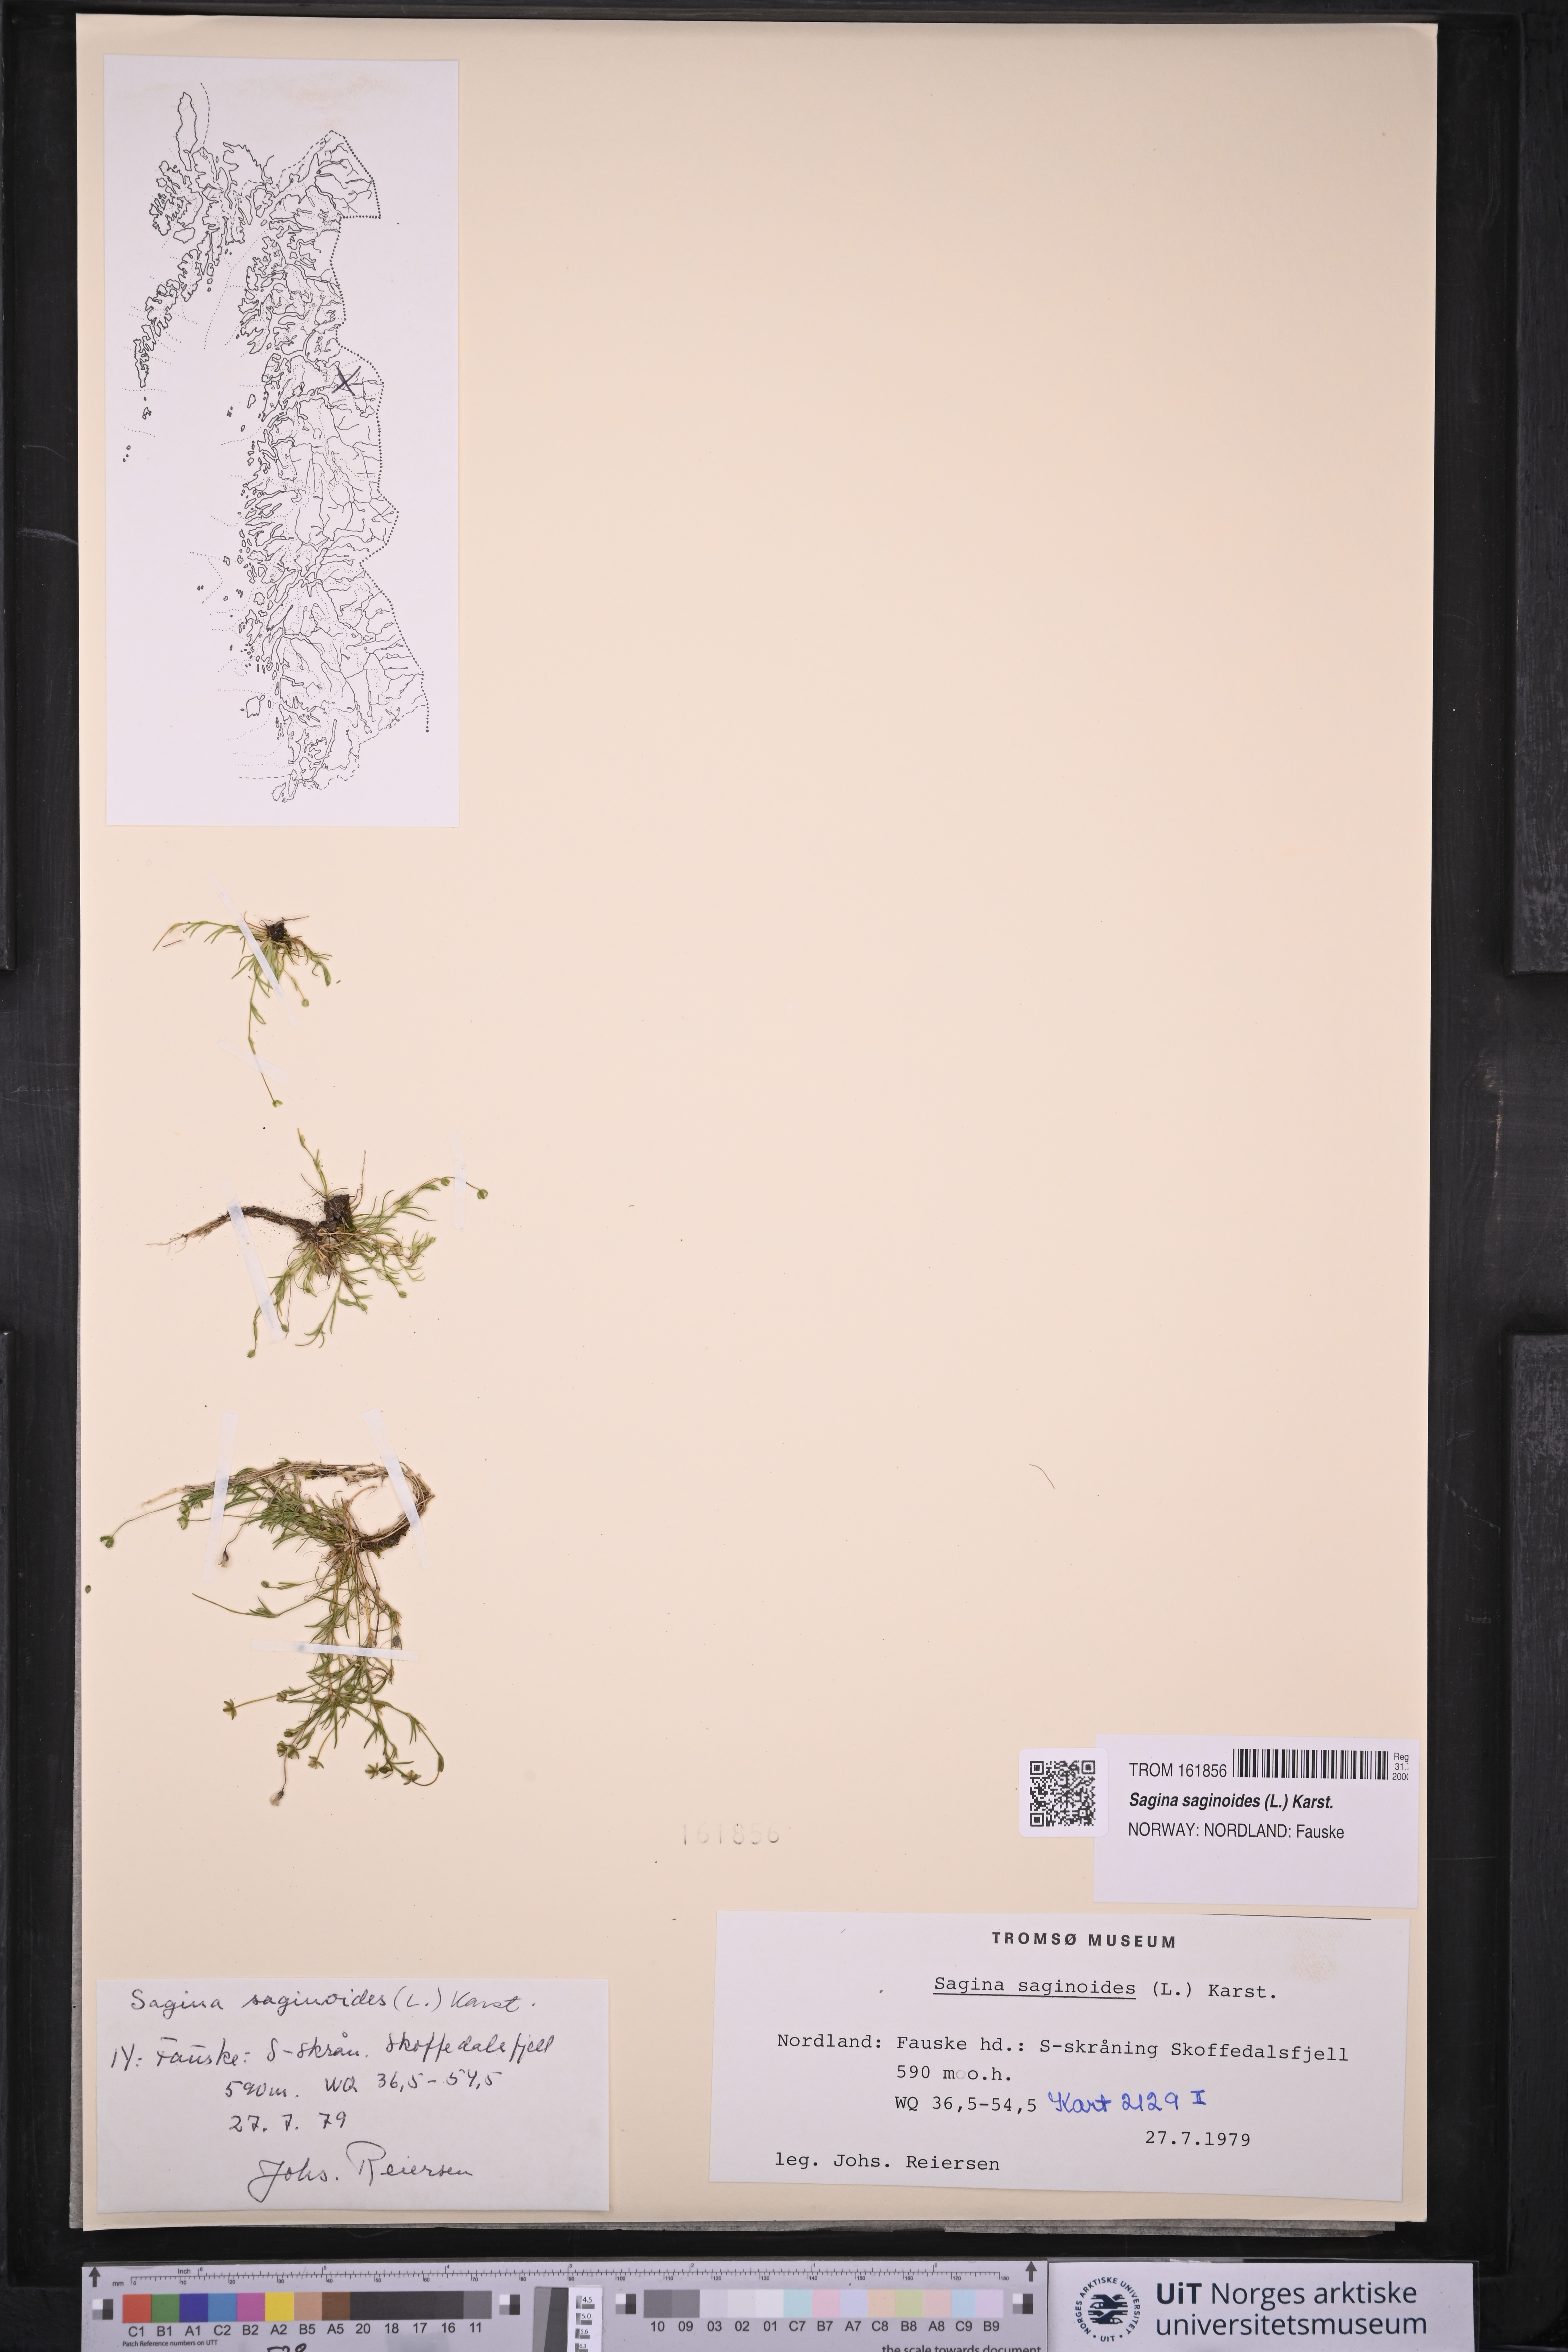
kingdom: Plantae
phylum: Tracheophyta
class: Magnoliopsida
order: Caryophyllales
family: Caryophyllaceae
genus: Sagina
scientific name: Sagina saginoides
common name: Alpine pearlwort
